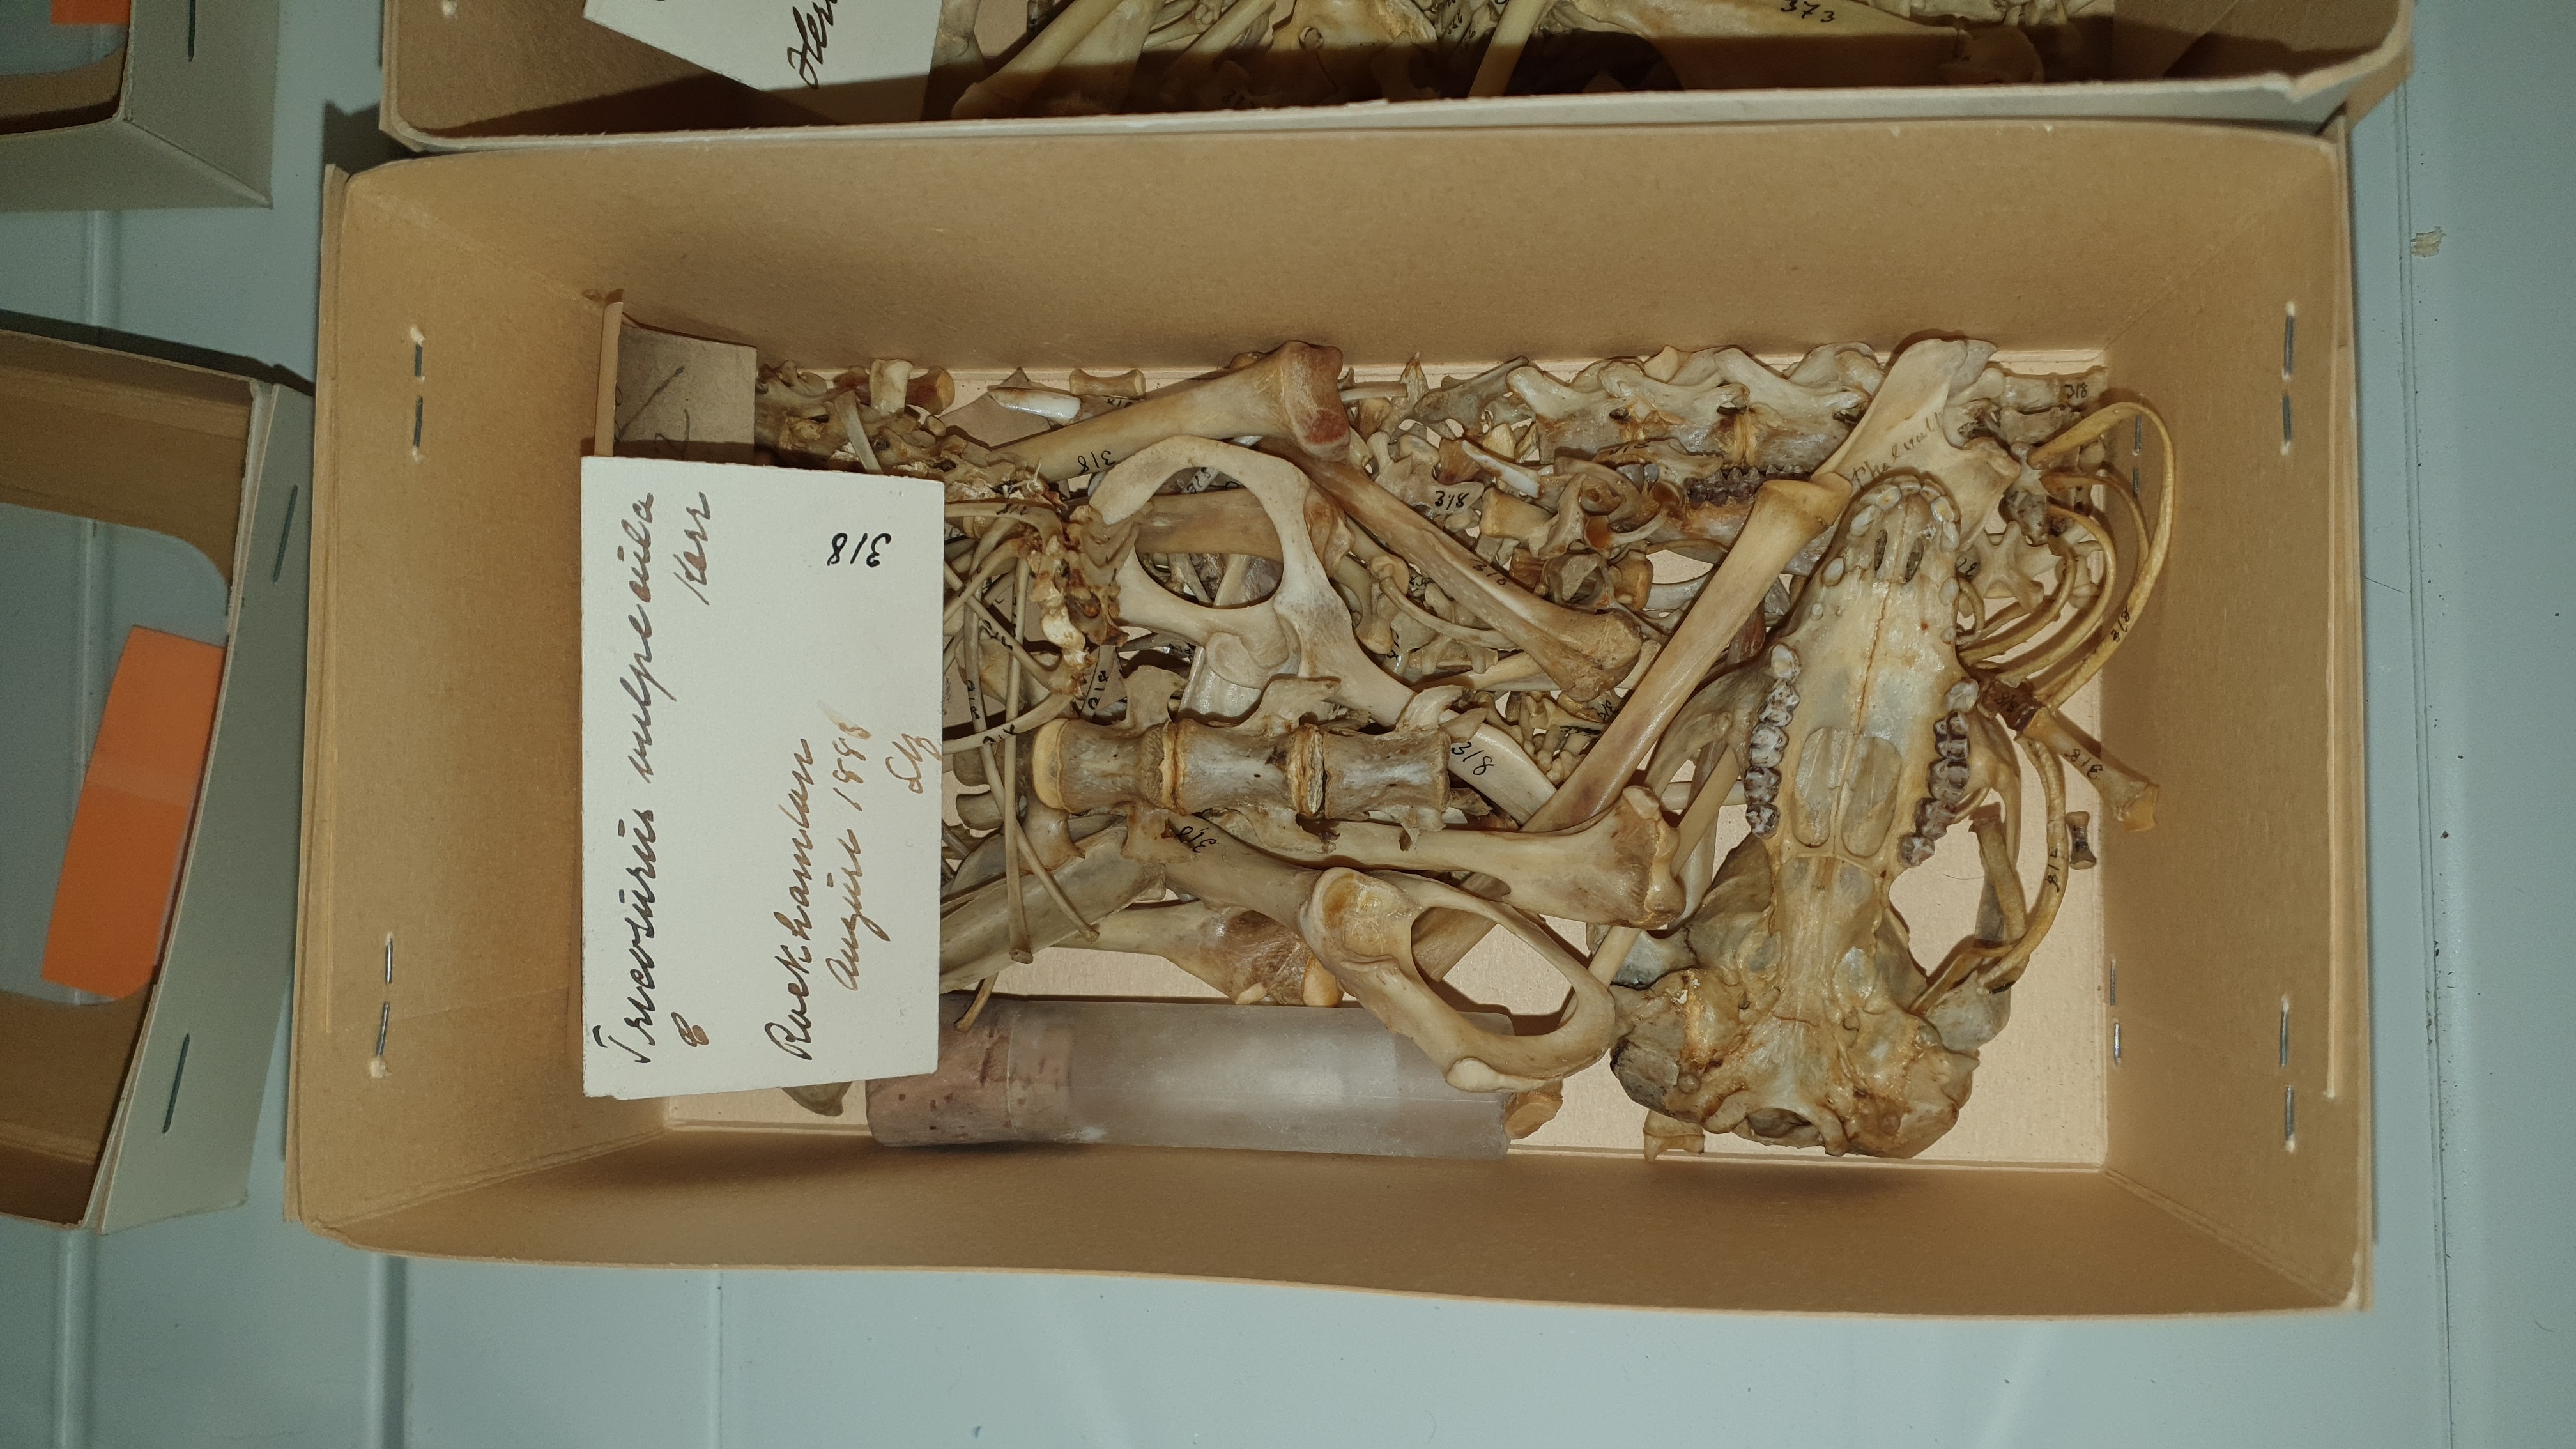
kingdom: Animalia
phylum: Chordata
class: Mammalia
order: Diprotodontia
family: Phalangeridae
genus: Trichosurus
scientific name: Trichosurus vulpecula
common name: Common brushtail
